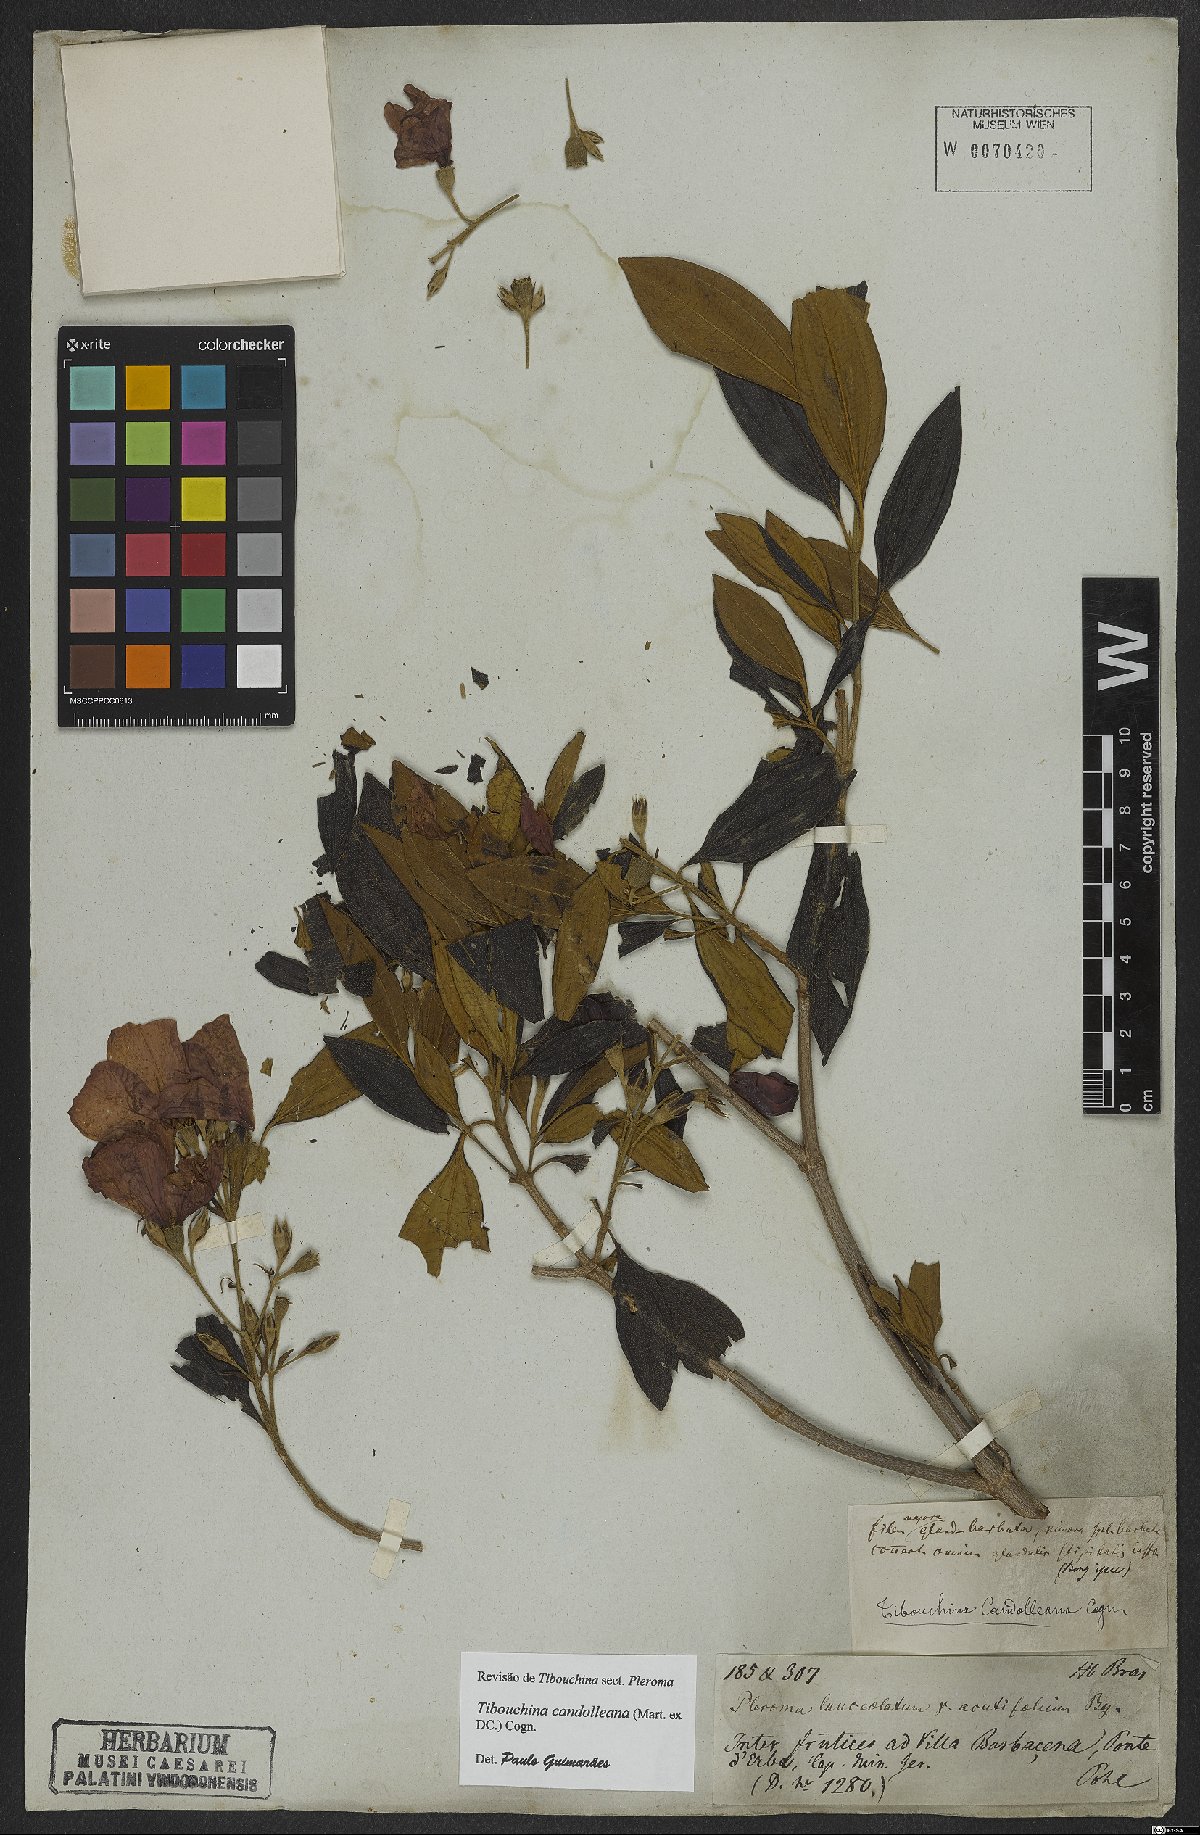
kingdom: Plantae
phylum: Tracheophyta
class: Magnoliopsida
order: Myrtales
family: Melastomataceae
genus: Pleroma
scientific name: Pleroma candolleanum
